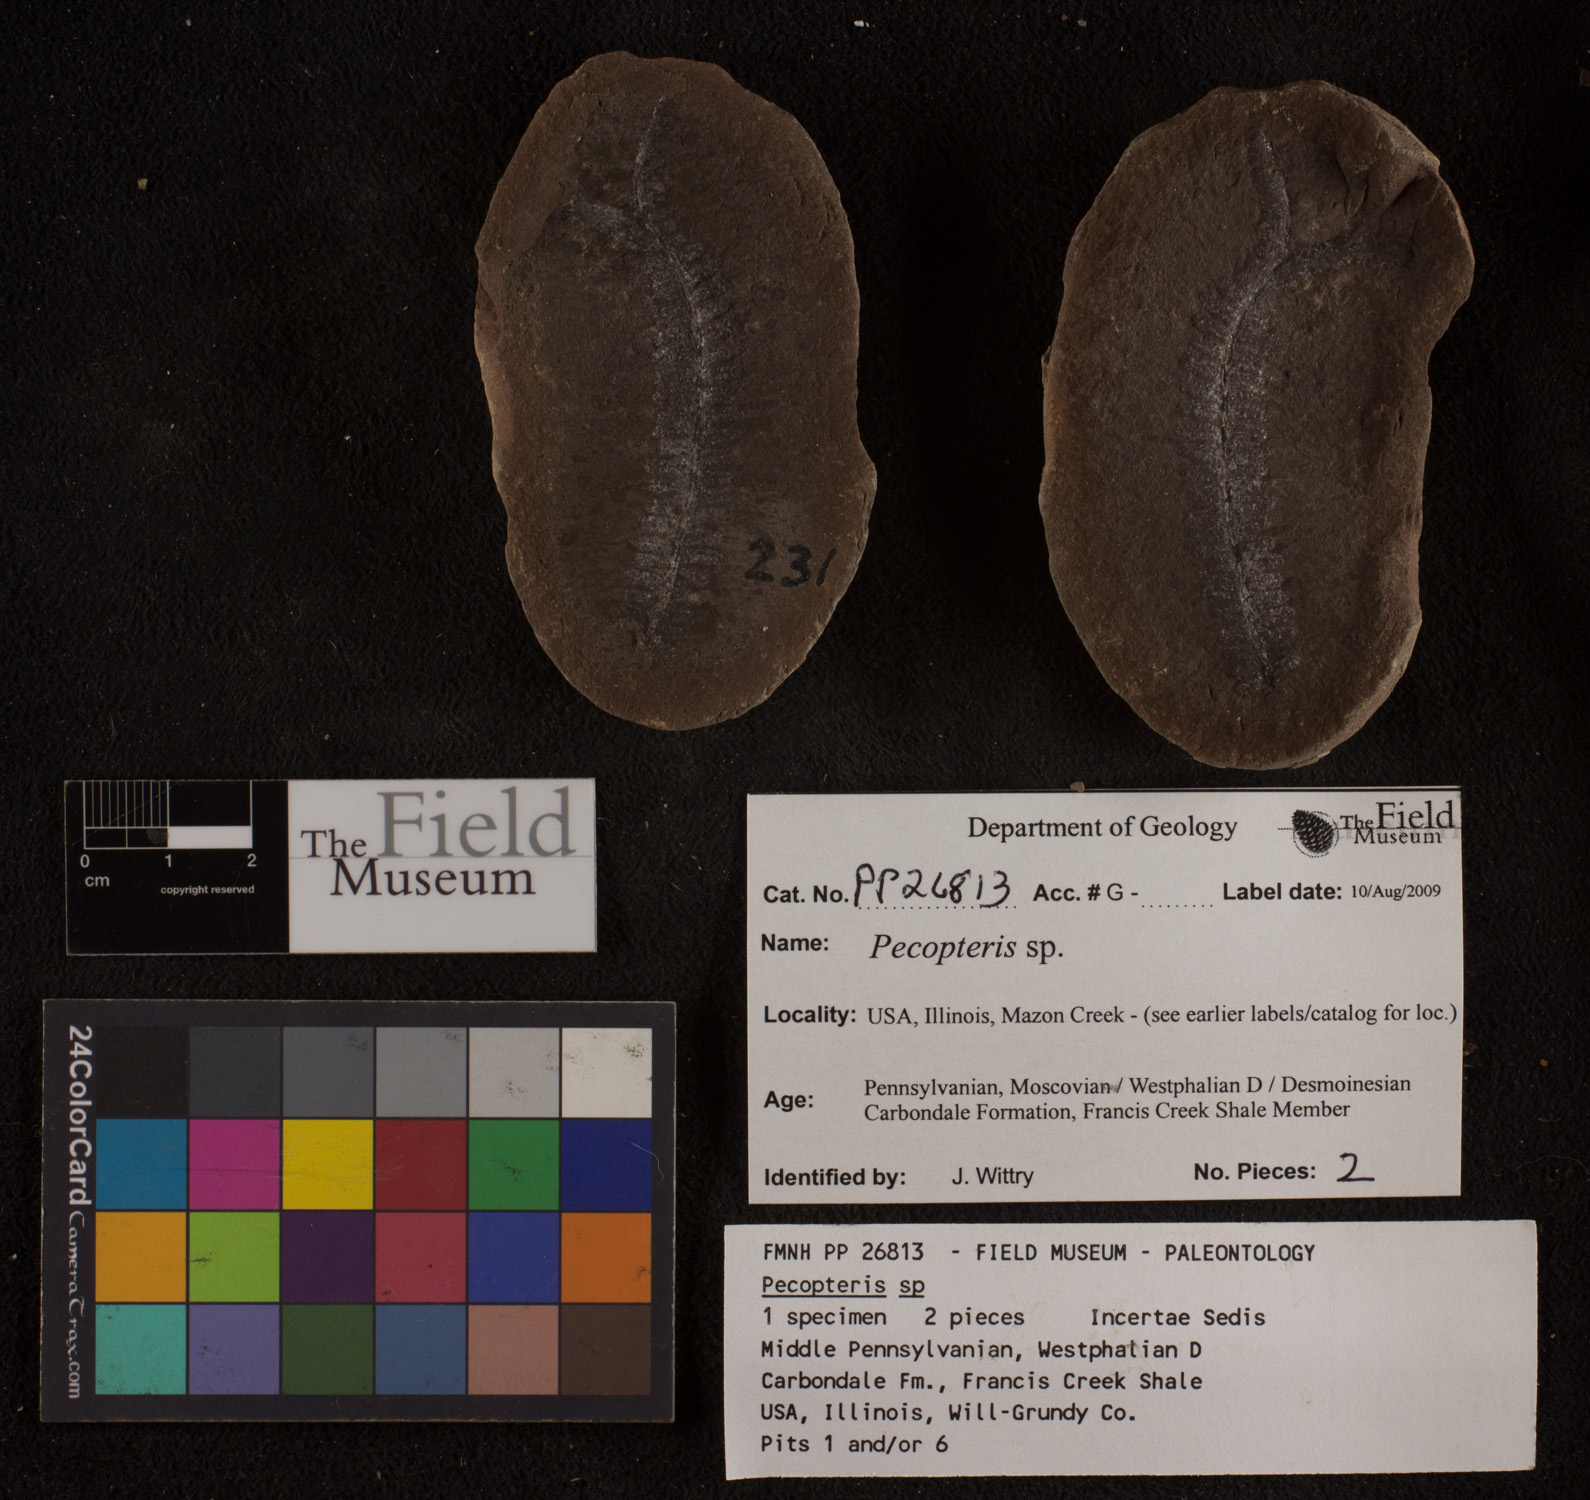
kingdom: Plantae
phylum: Tracheophyta
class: Polypodiopsida
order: Marattiales
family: Asterothecaceae
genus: Pecopteris
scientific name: Pecopteris
